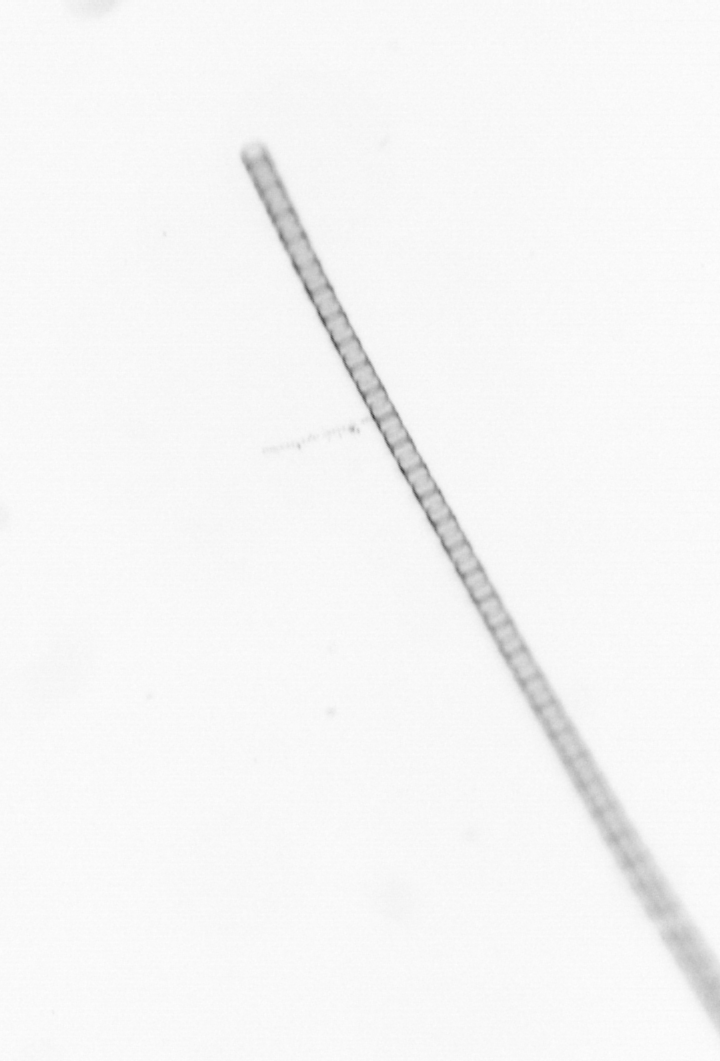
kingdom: Chromista
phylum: Ochrophyta
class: Bacillariophyceae
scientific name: Bacillariophyceae
